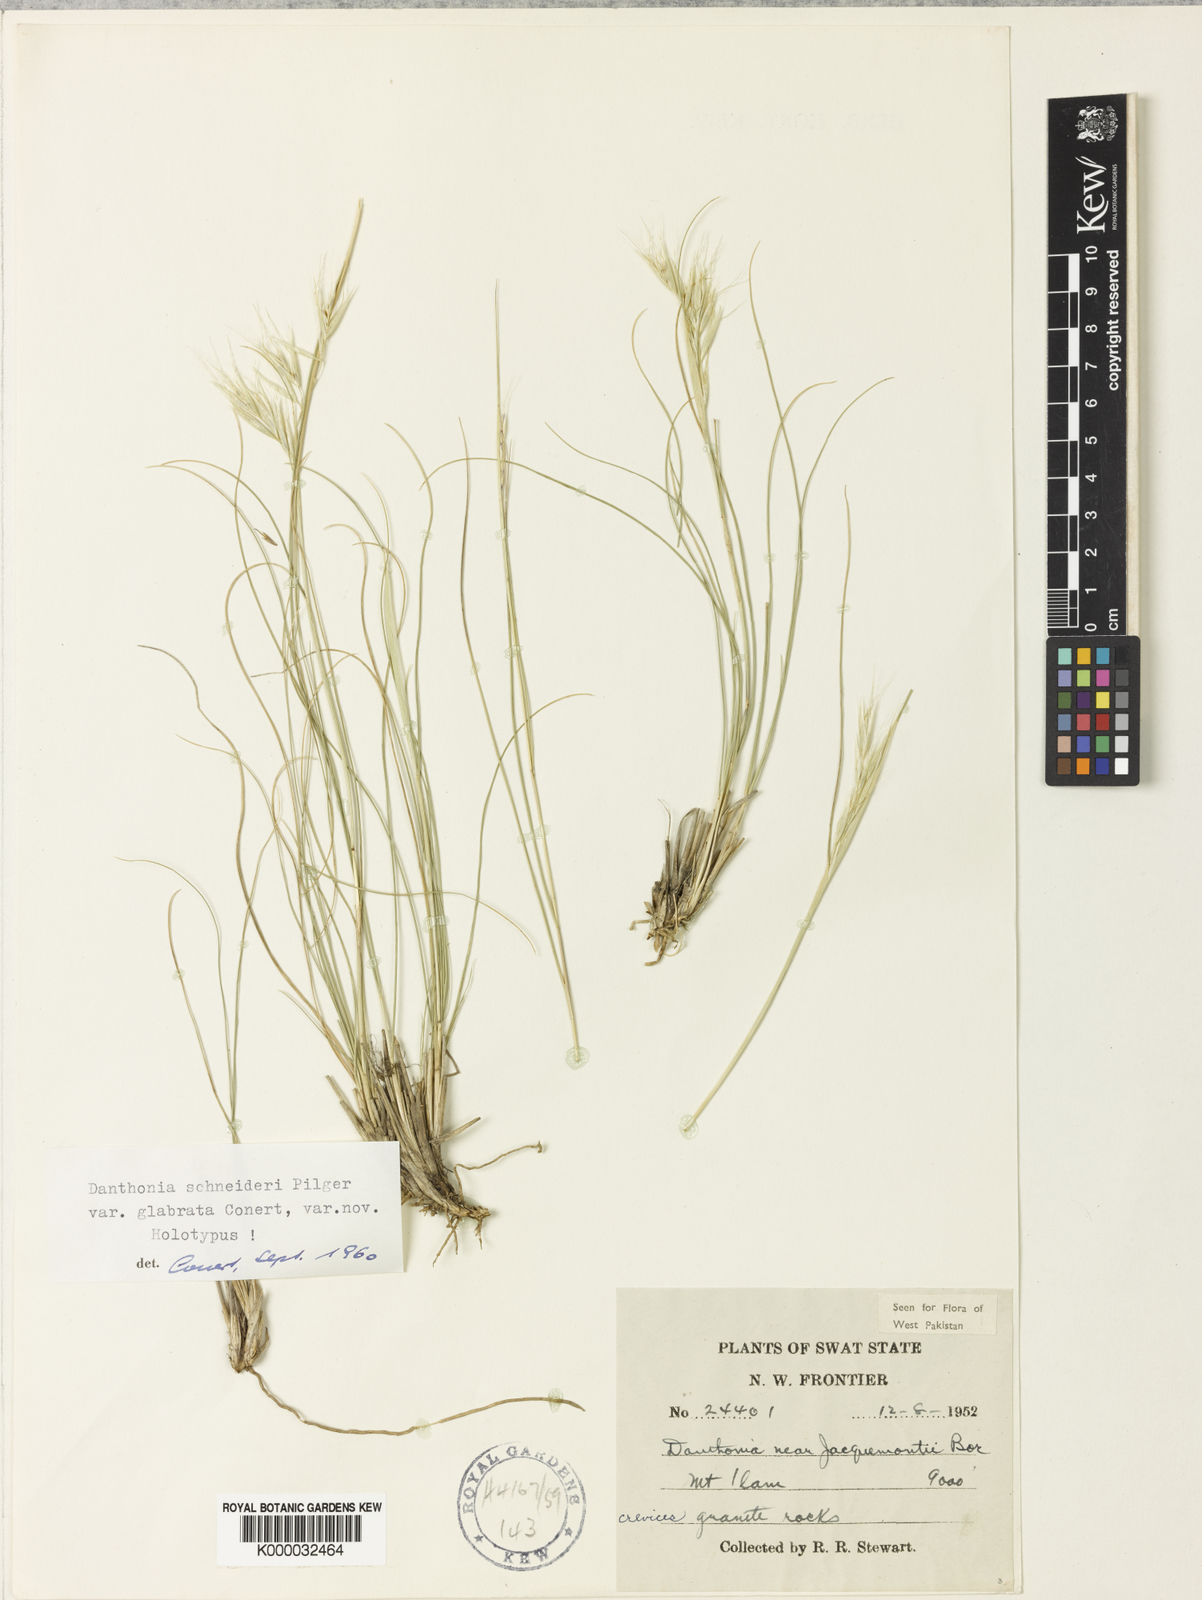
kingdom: Plantae
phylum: Tracheophyta
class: Liliopsida
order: Poales
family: Poaceae
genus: Rytidosperma
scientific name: Rytidosperma
